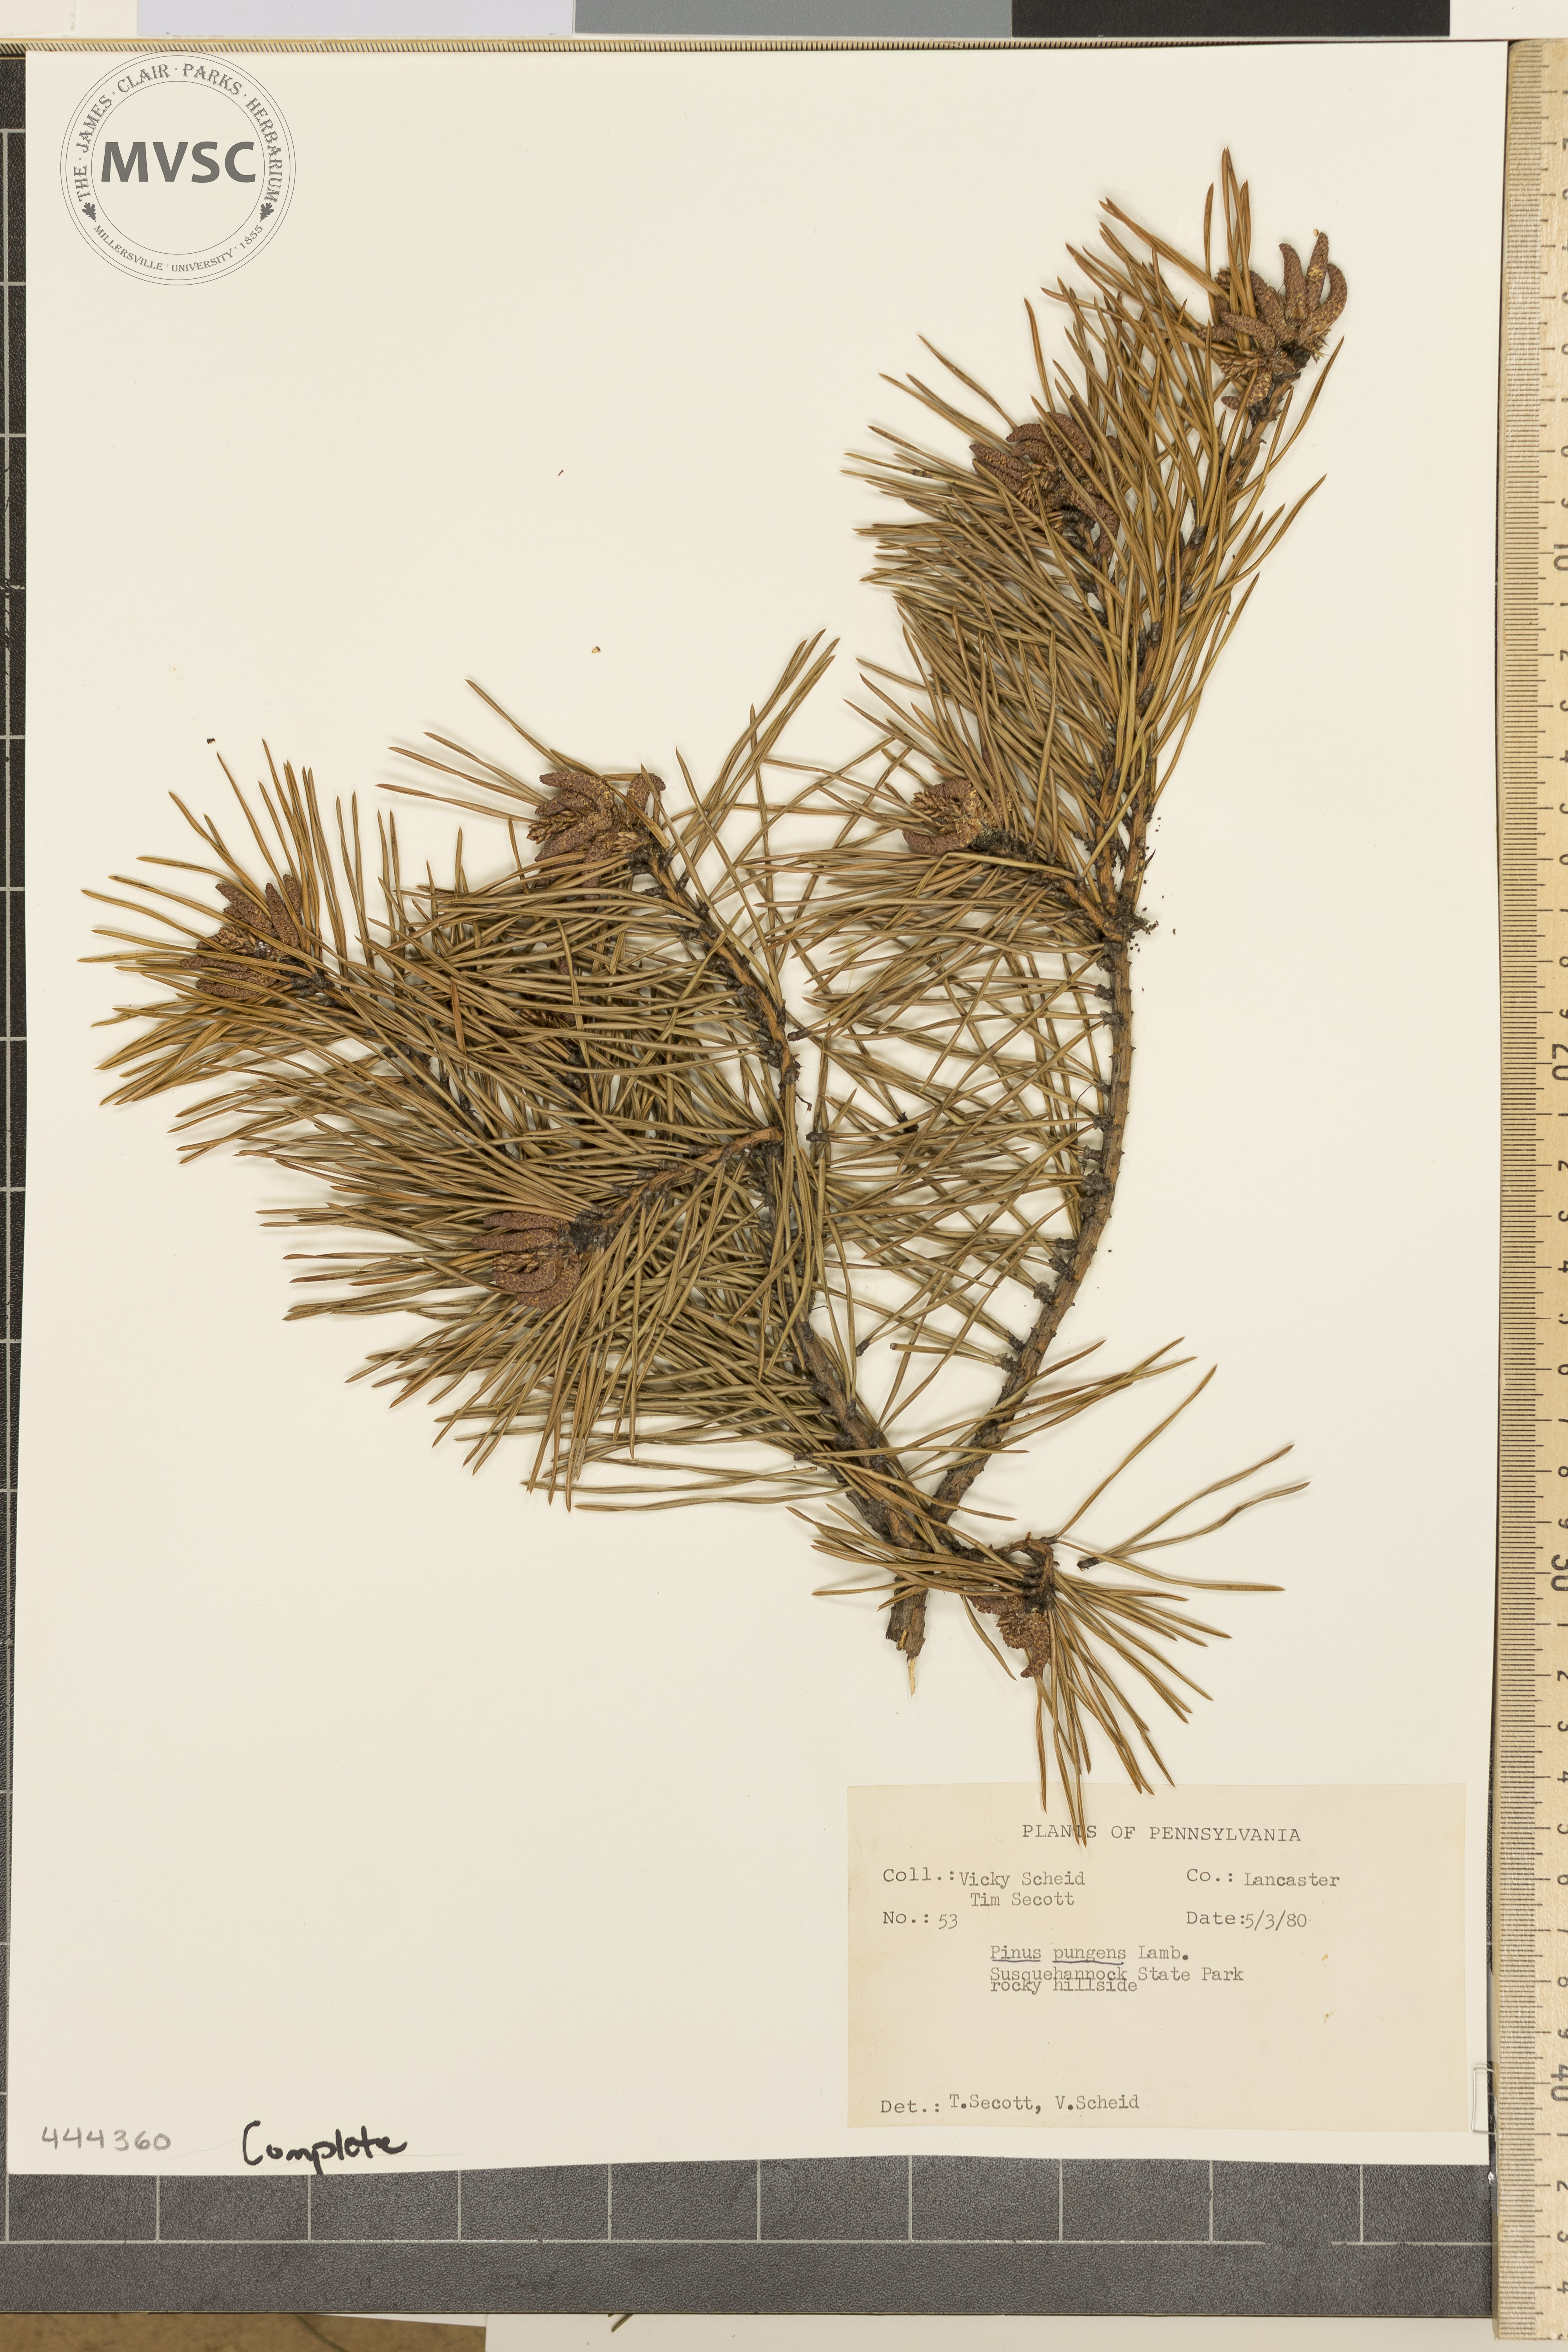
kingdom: Plantae
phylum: Tracheophyta
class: Pinopsida
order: Pinales
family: Pinaceae
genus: Pinus
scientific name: Pinus pungens
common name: Hickory pine
